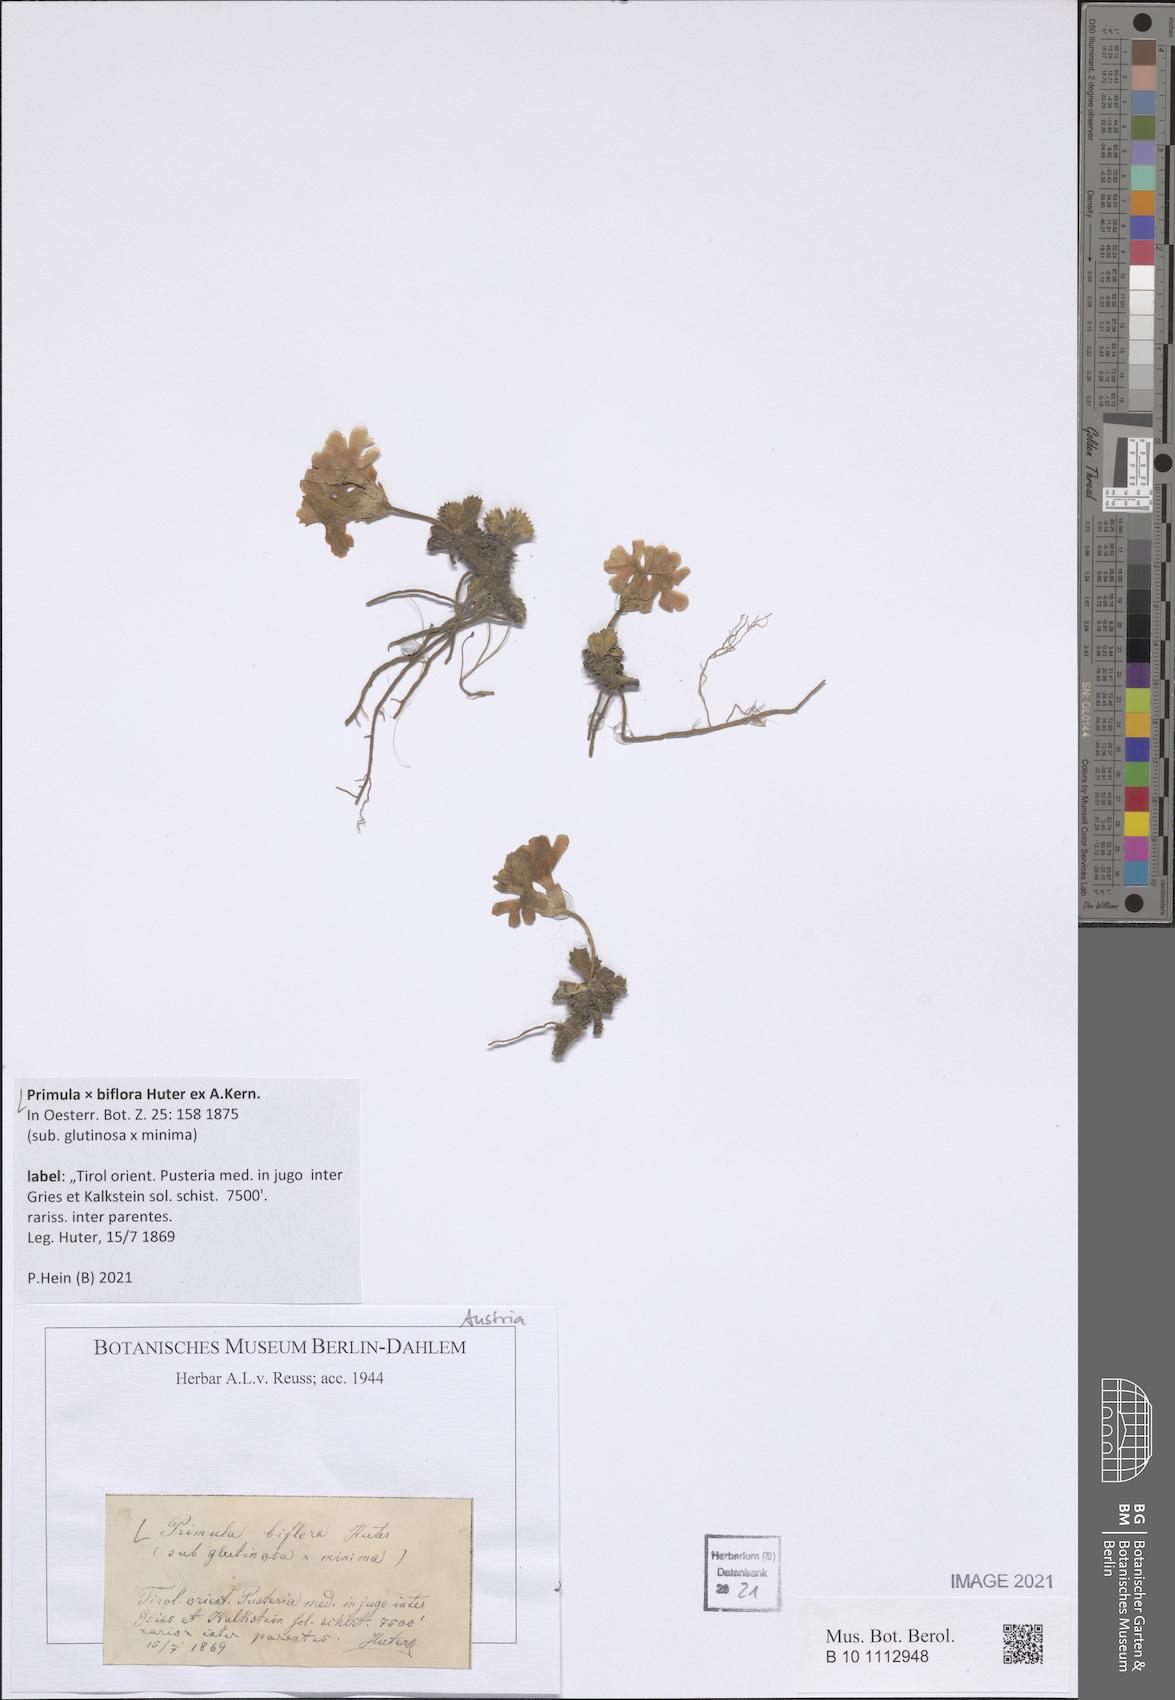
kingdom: Plantae
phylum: Tracheophyta
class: Magnoliopsida
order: Ericales
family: Primulaceae
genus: Primula
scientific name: Primula floerkeana
